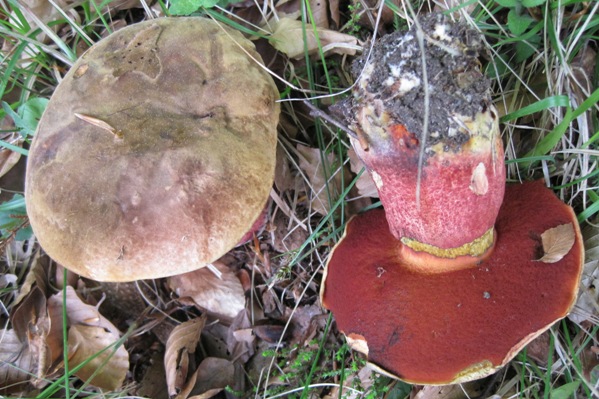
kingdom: Fungi
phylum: Basidiomycota
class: Agaricomycetes
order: Boletales
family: Boletaceae
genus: Neoboletus
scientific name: Neoboletus erythropus
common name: punktstokket indigorørhat
